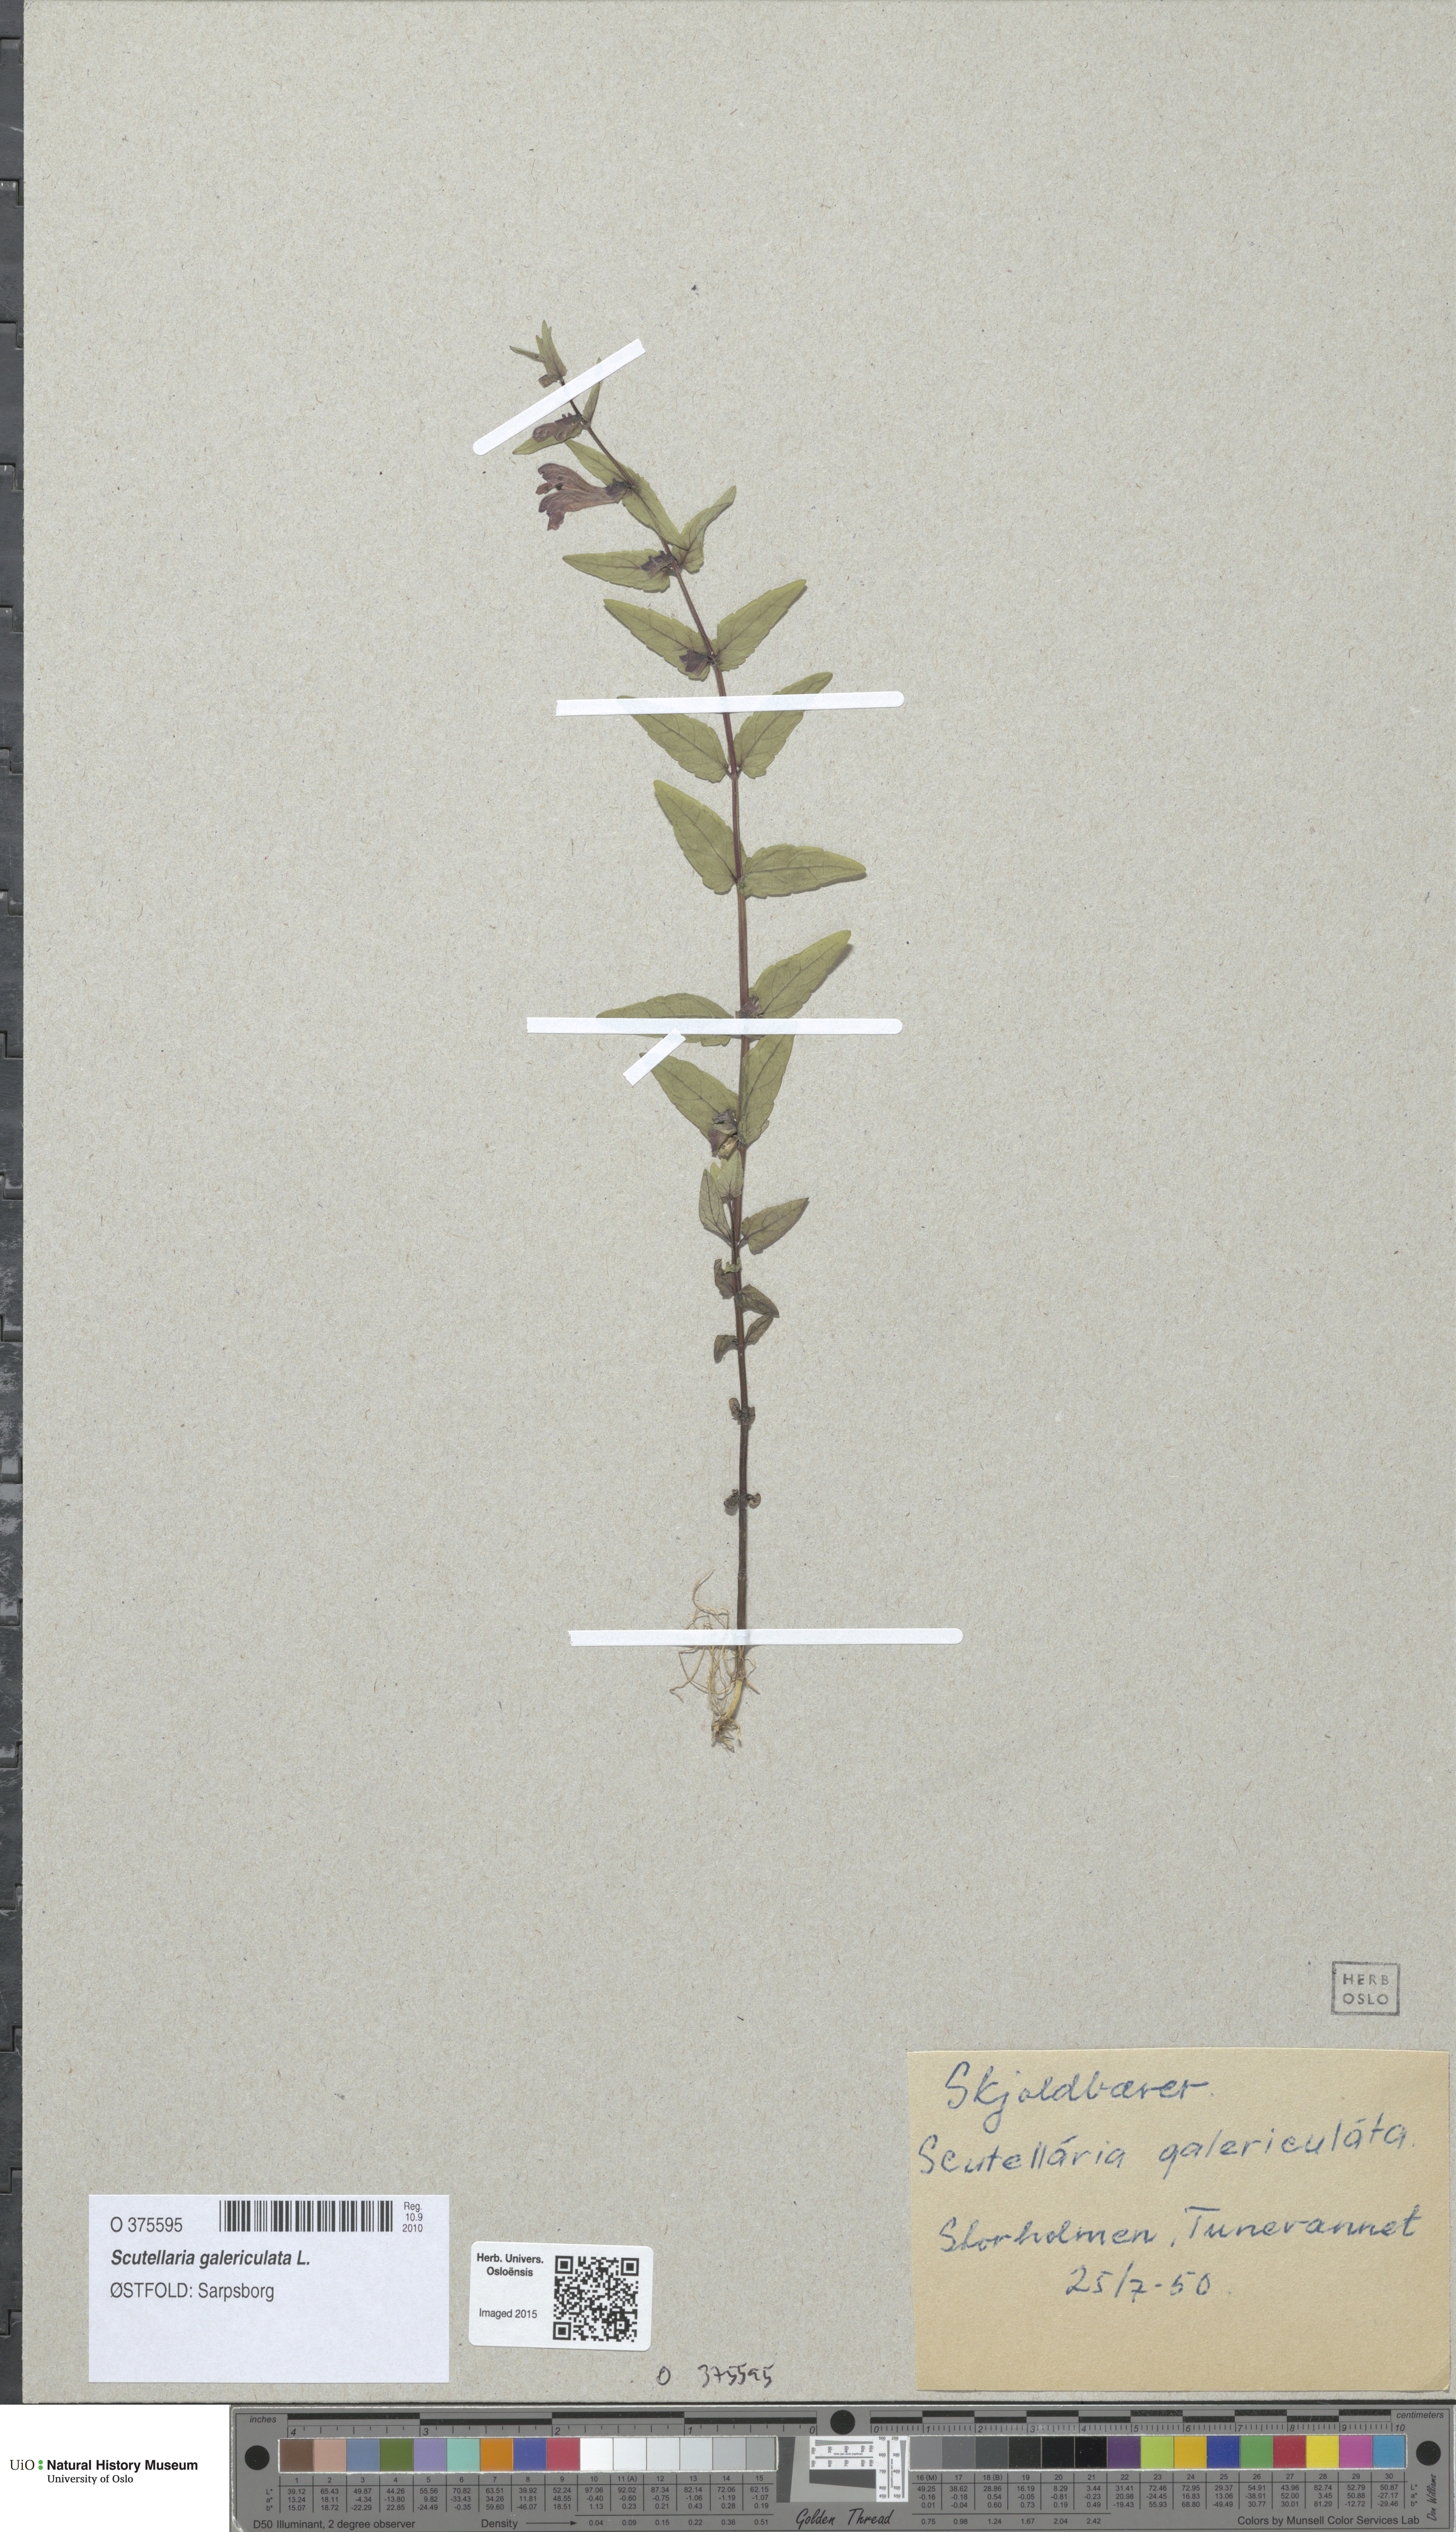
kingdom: Plantae
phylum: Tracheophyta
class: Magnoliopsida
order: Lamiales
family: Lamiaceae
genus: Scutellaria
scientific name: Scutellaria galericulata
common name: Skullcap
